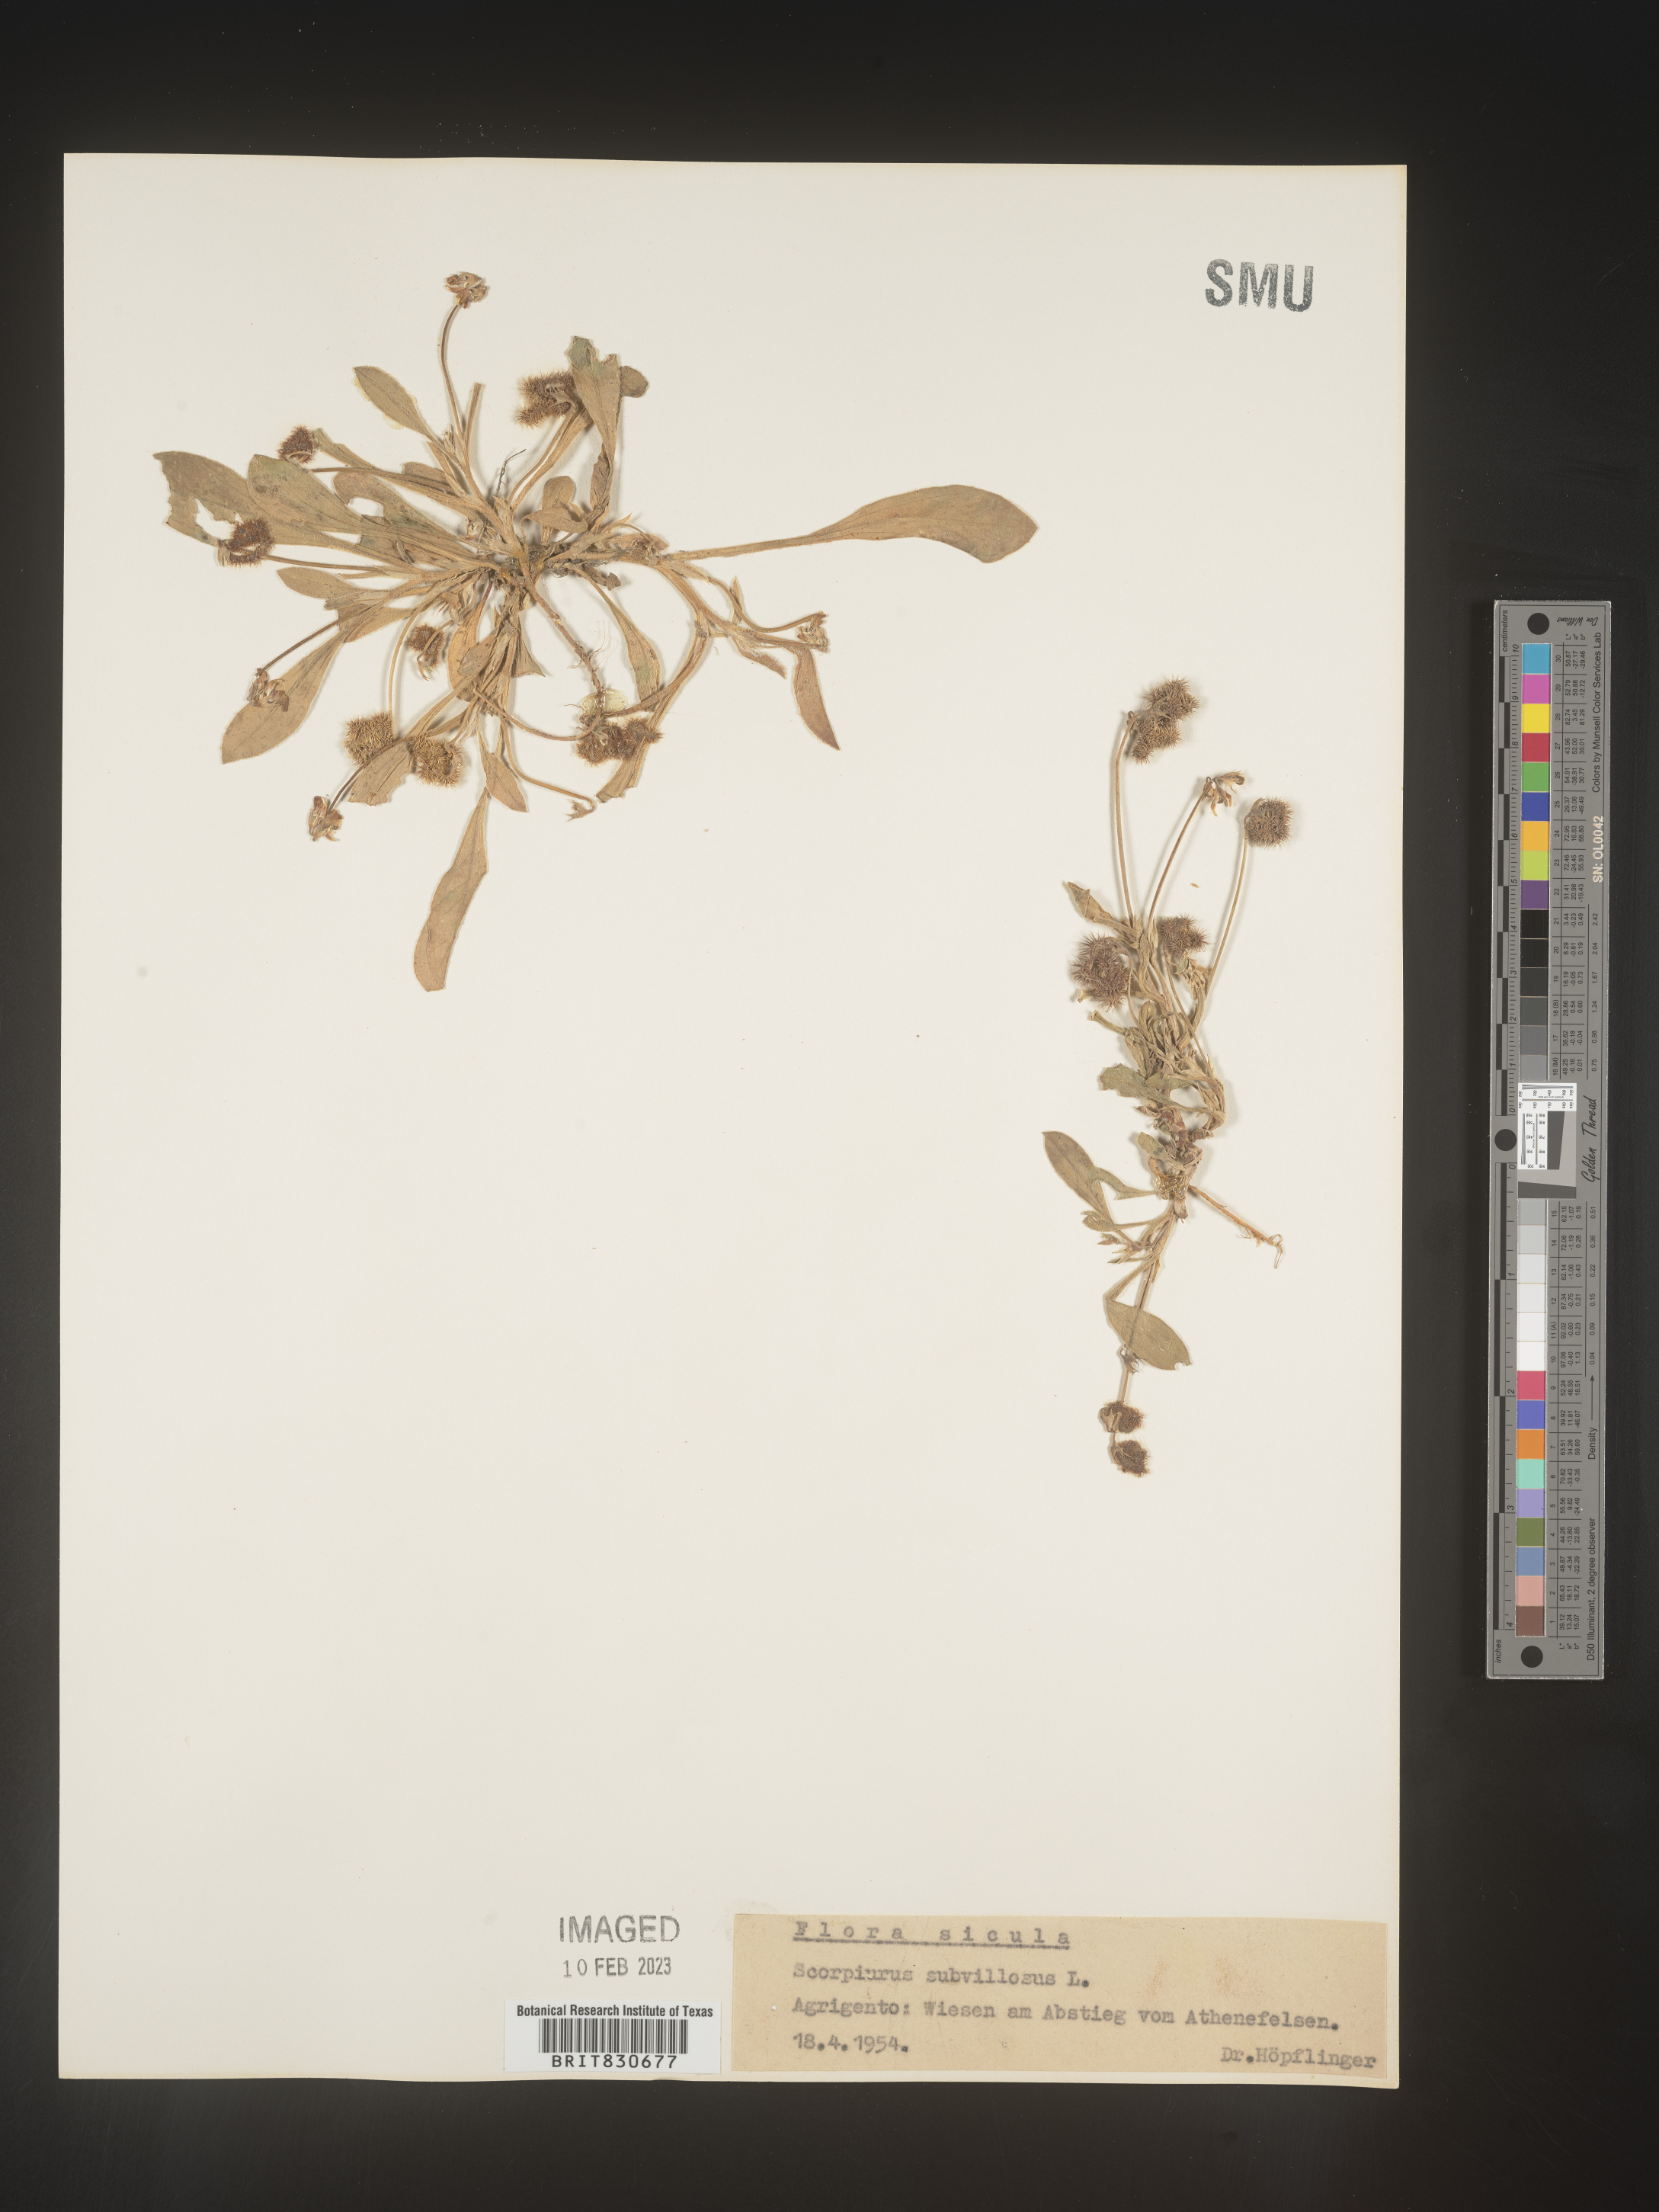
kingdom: Plantae
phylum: Tracheophyta
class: Magnoliopsida
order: Fabales
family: Fabaceae
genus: Scorpiurus
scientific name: Scorpiurus
